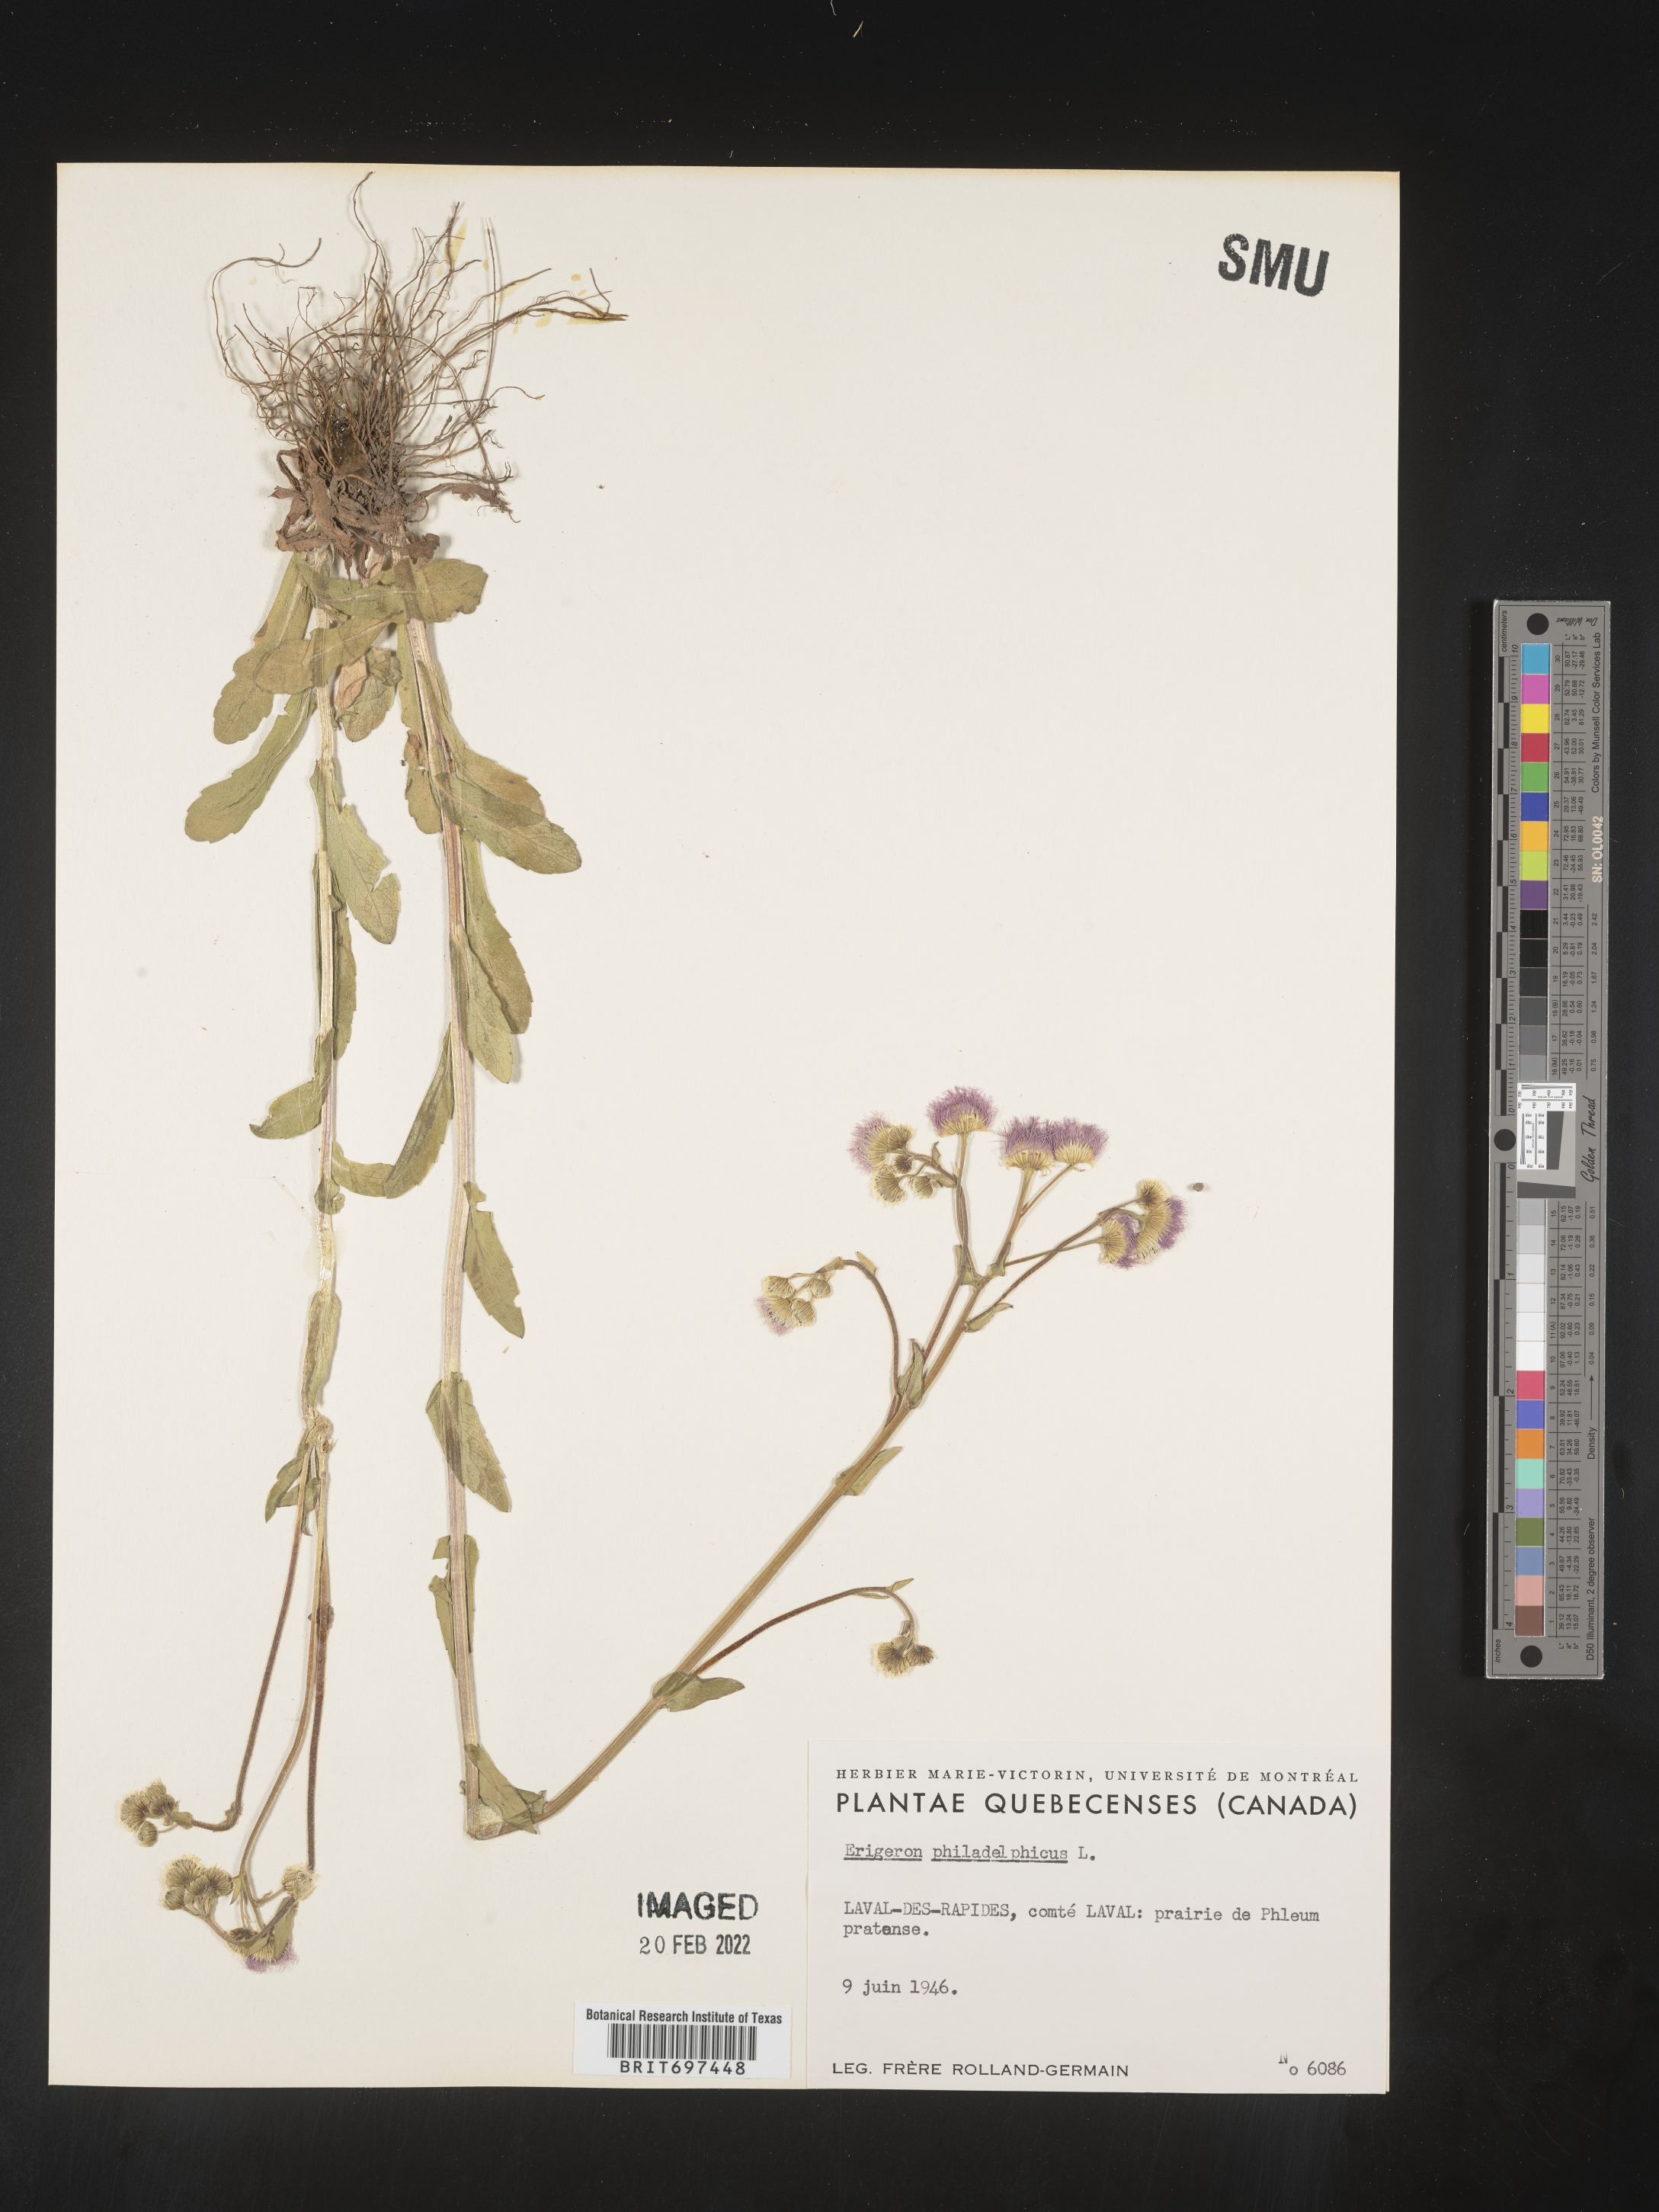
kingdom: Plantae
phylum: Tracheophyta
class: Magnoliopsida
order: Asterales
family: Asteraceae
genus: Erigeron
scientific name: Erigeron philadelphicus
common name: Robin's-plantain
